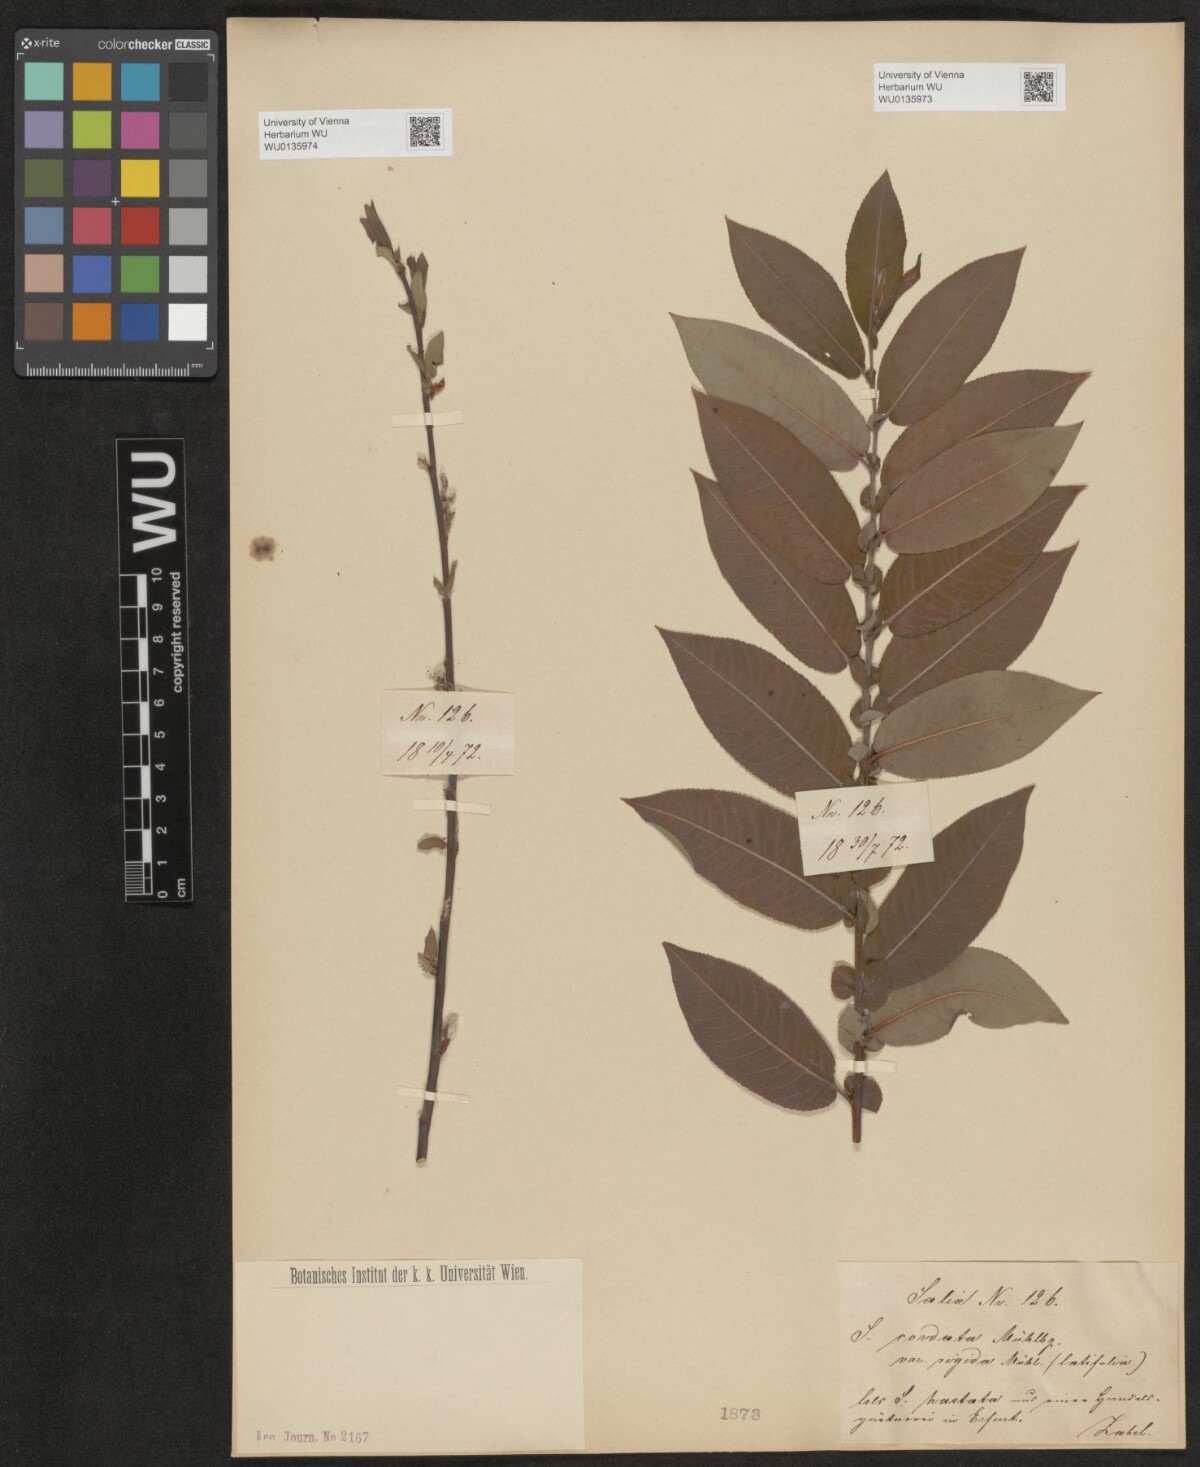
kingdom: Plantae
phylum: Tracheophyta
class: Magnoliopsida
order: Malpighiales
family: Salicaceae
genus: Salix
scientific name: Salix cordata
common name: Heart-leaf willow
